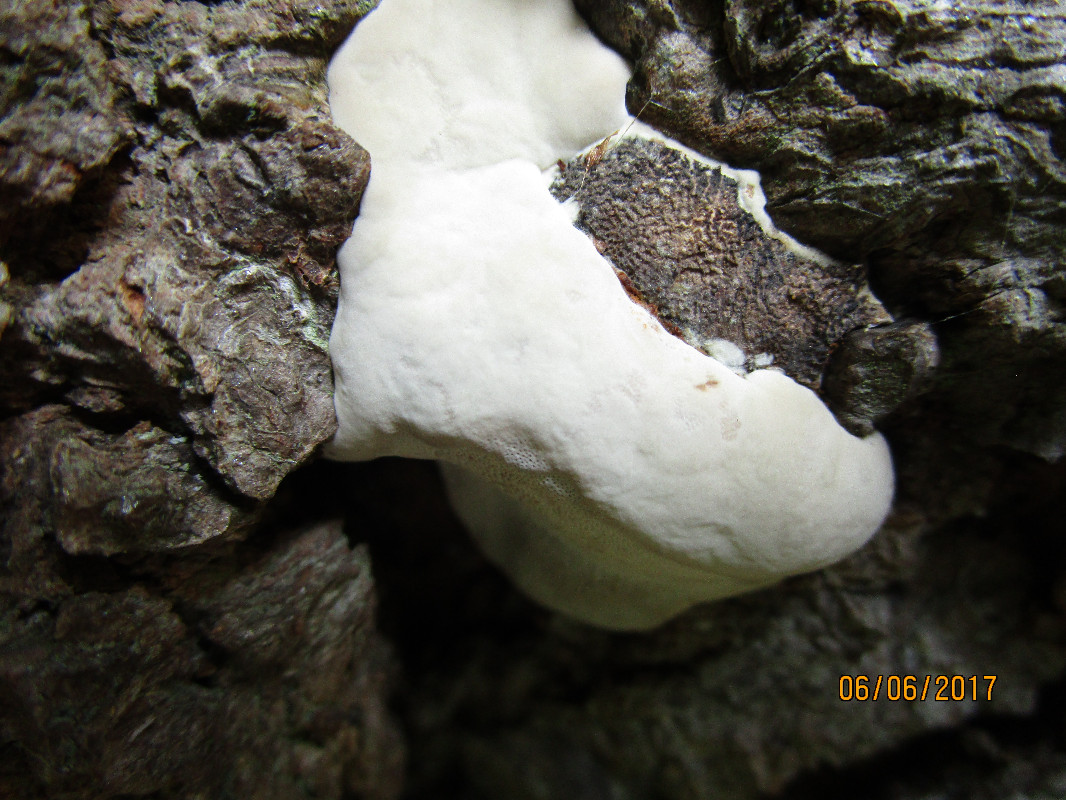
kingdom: Fungi
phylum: Basidiomycota
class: Agaricomycetes
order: Polyporales
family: Polyporaceae
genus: Ganoderma
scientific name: Ganoderma adspersum
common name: grov lakporesvamp
